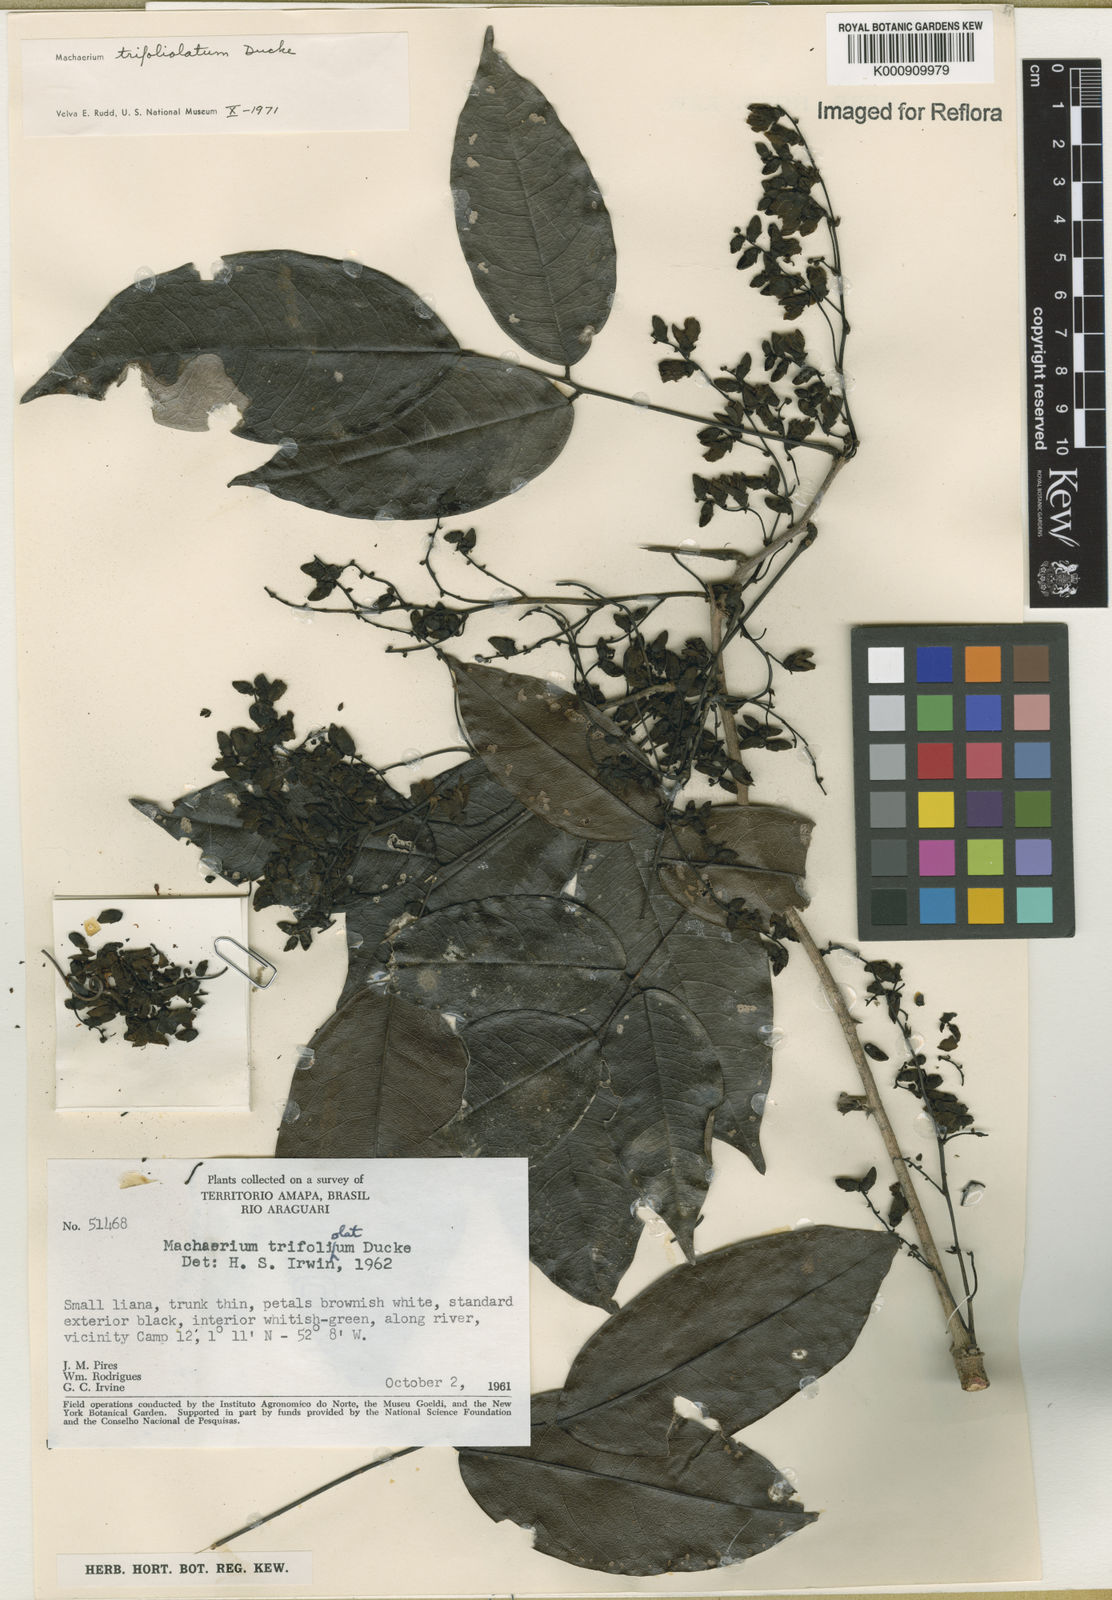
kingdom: Plantae
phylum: Tracheophyta
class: Magnoliopsida
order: Fabales
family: Fabaceae
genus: Machaerium
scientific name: Machaerium trifoliolatum
